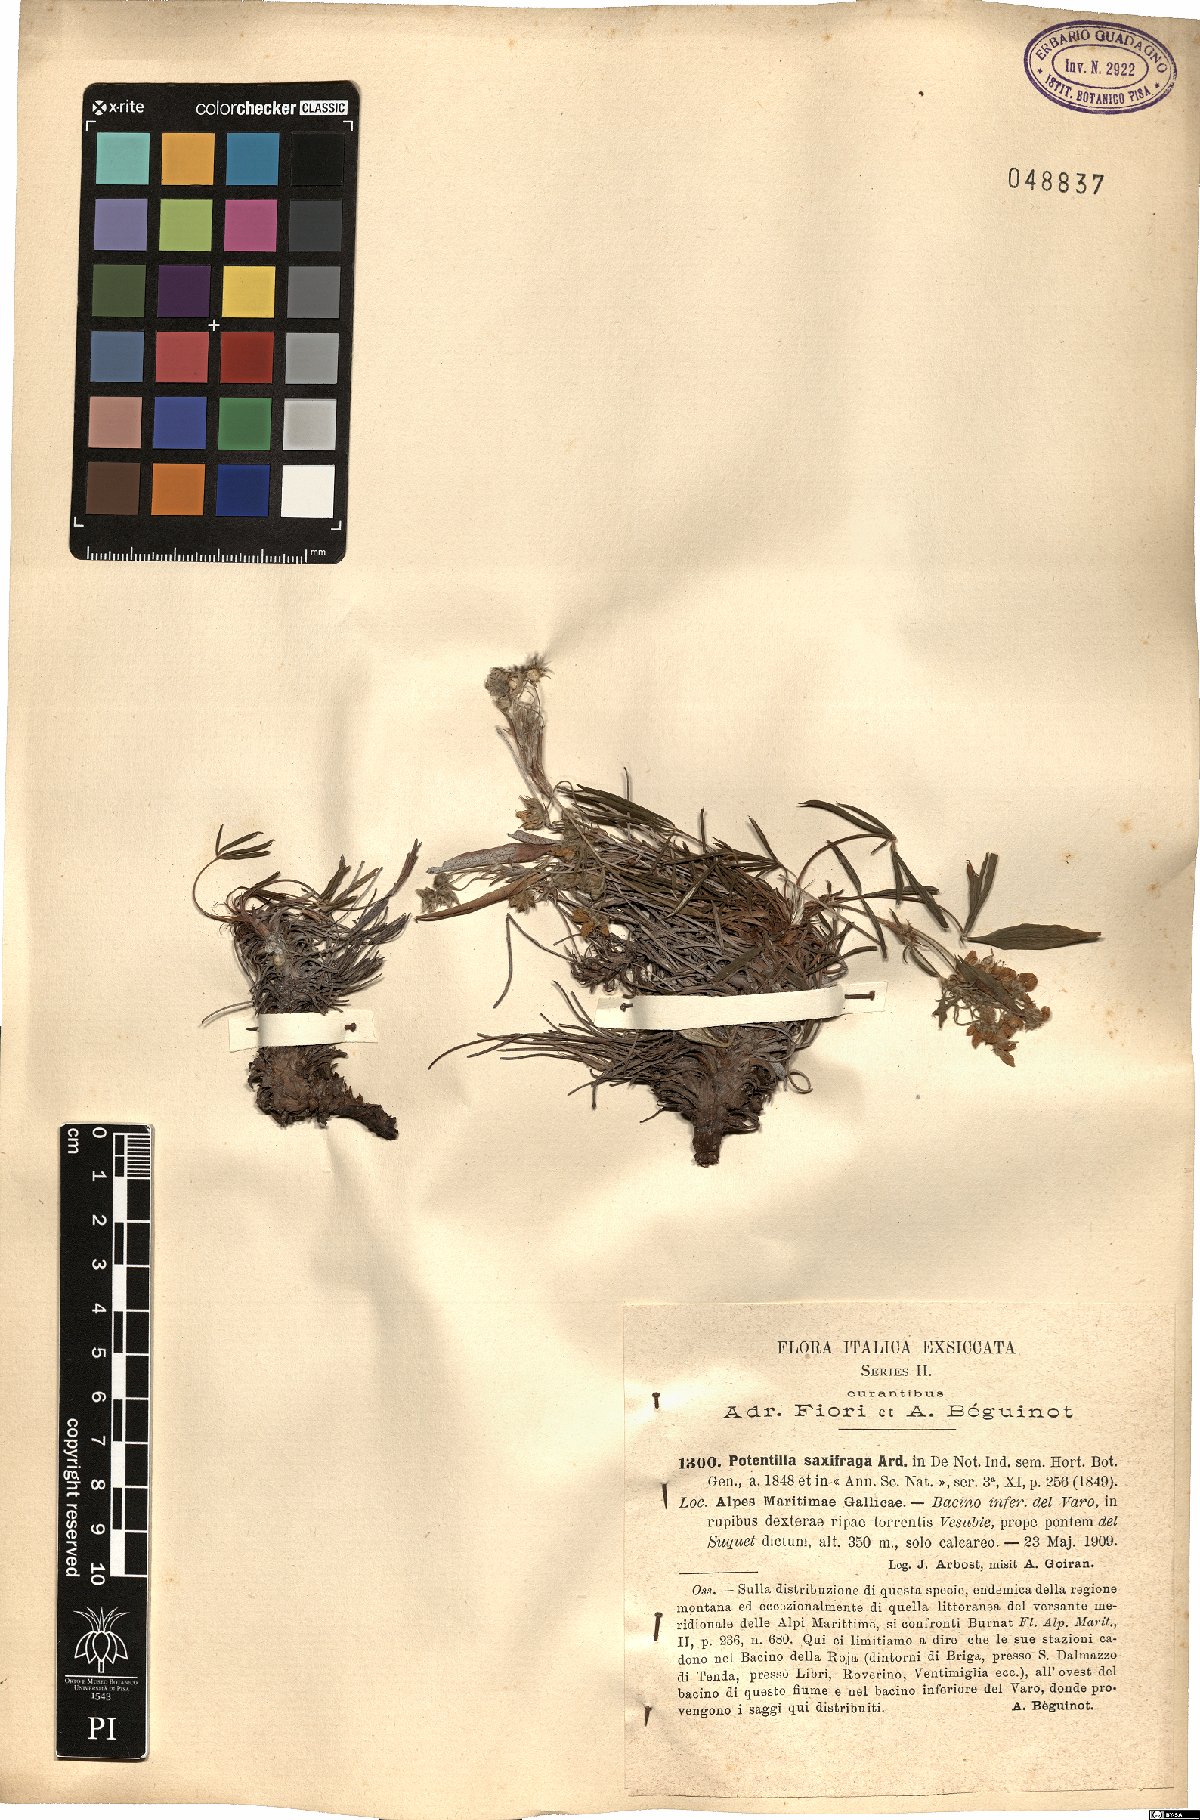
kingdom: Plantae
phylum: Tracheophyta
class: Magnoliopsida
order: Rosales
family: Rosaceae
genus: Potentilla
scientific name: Potentilla saxifraga
